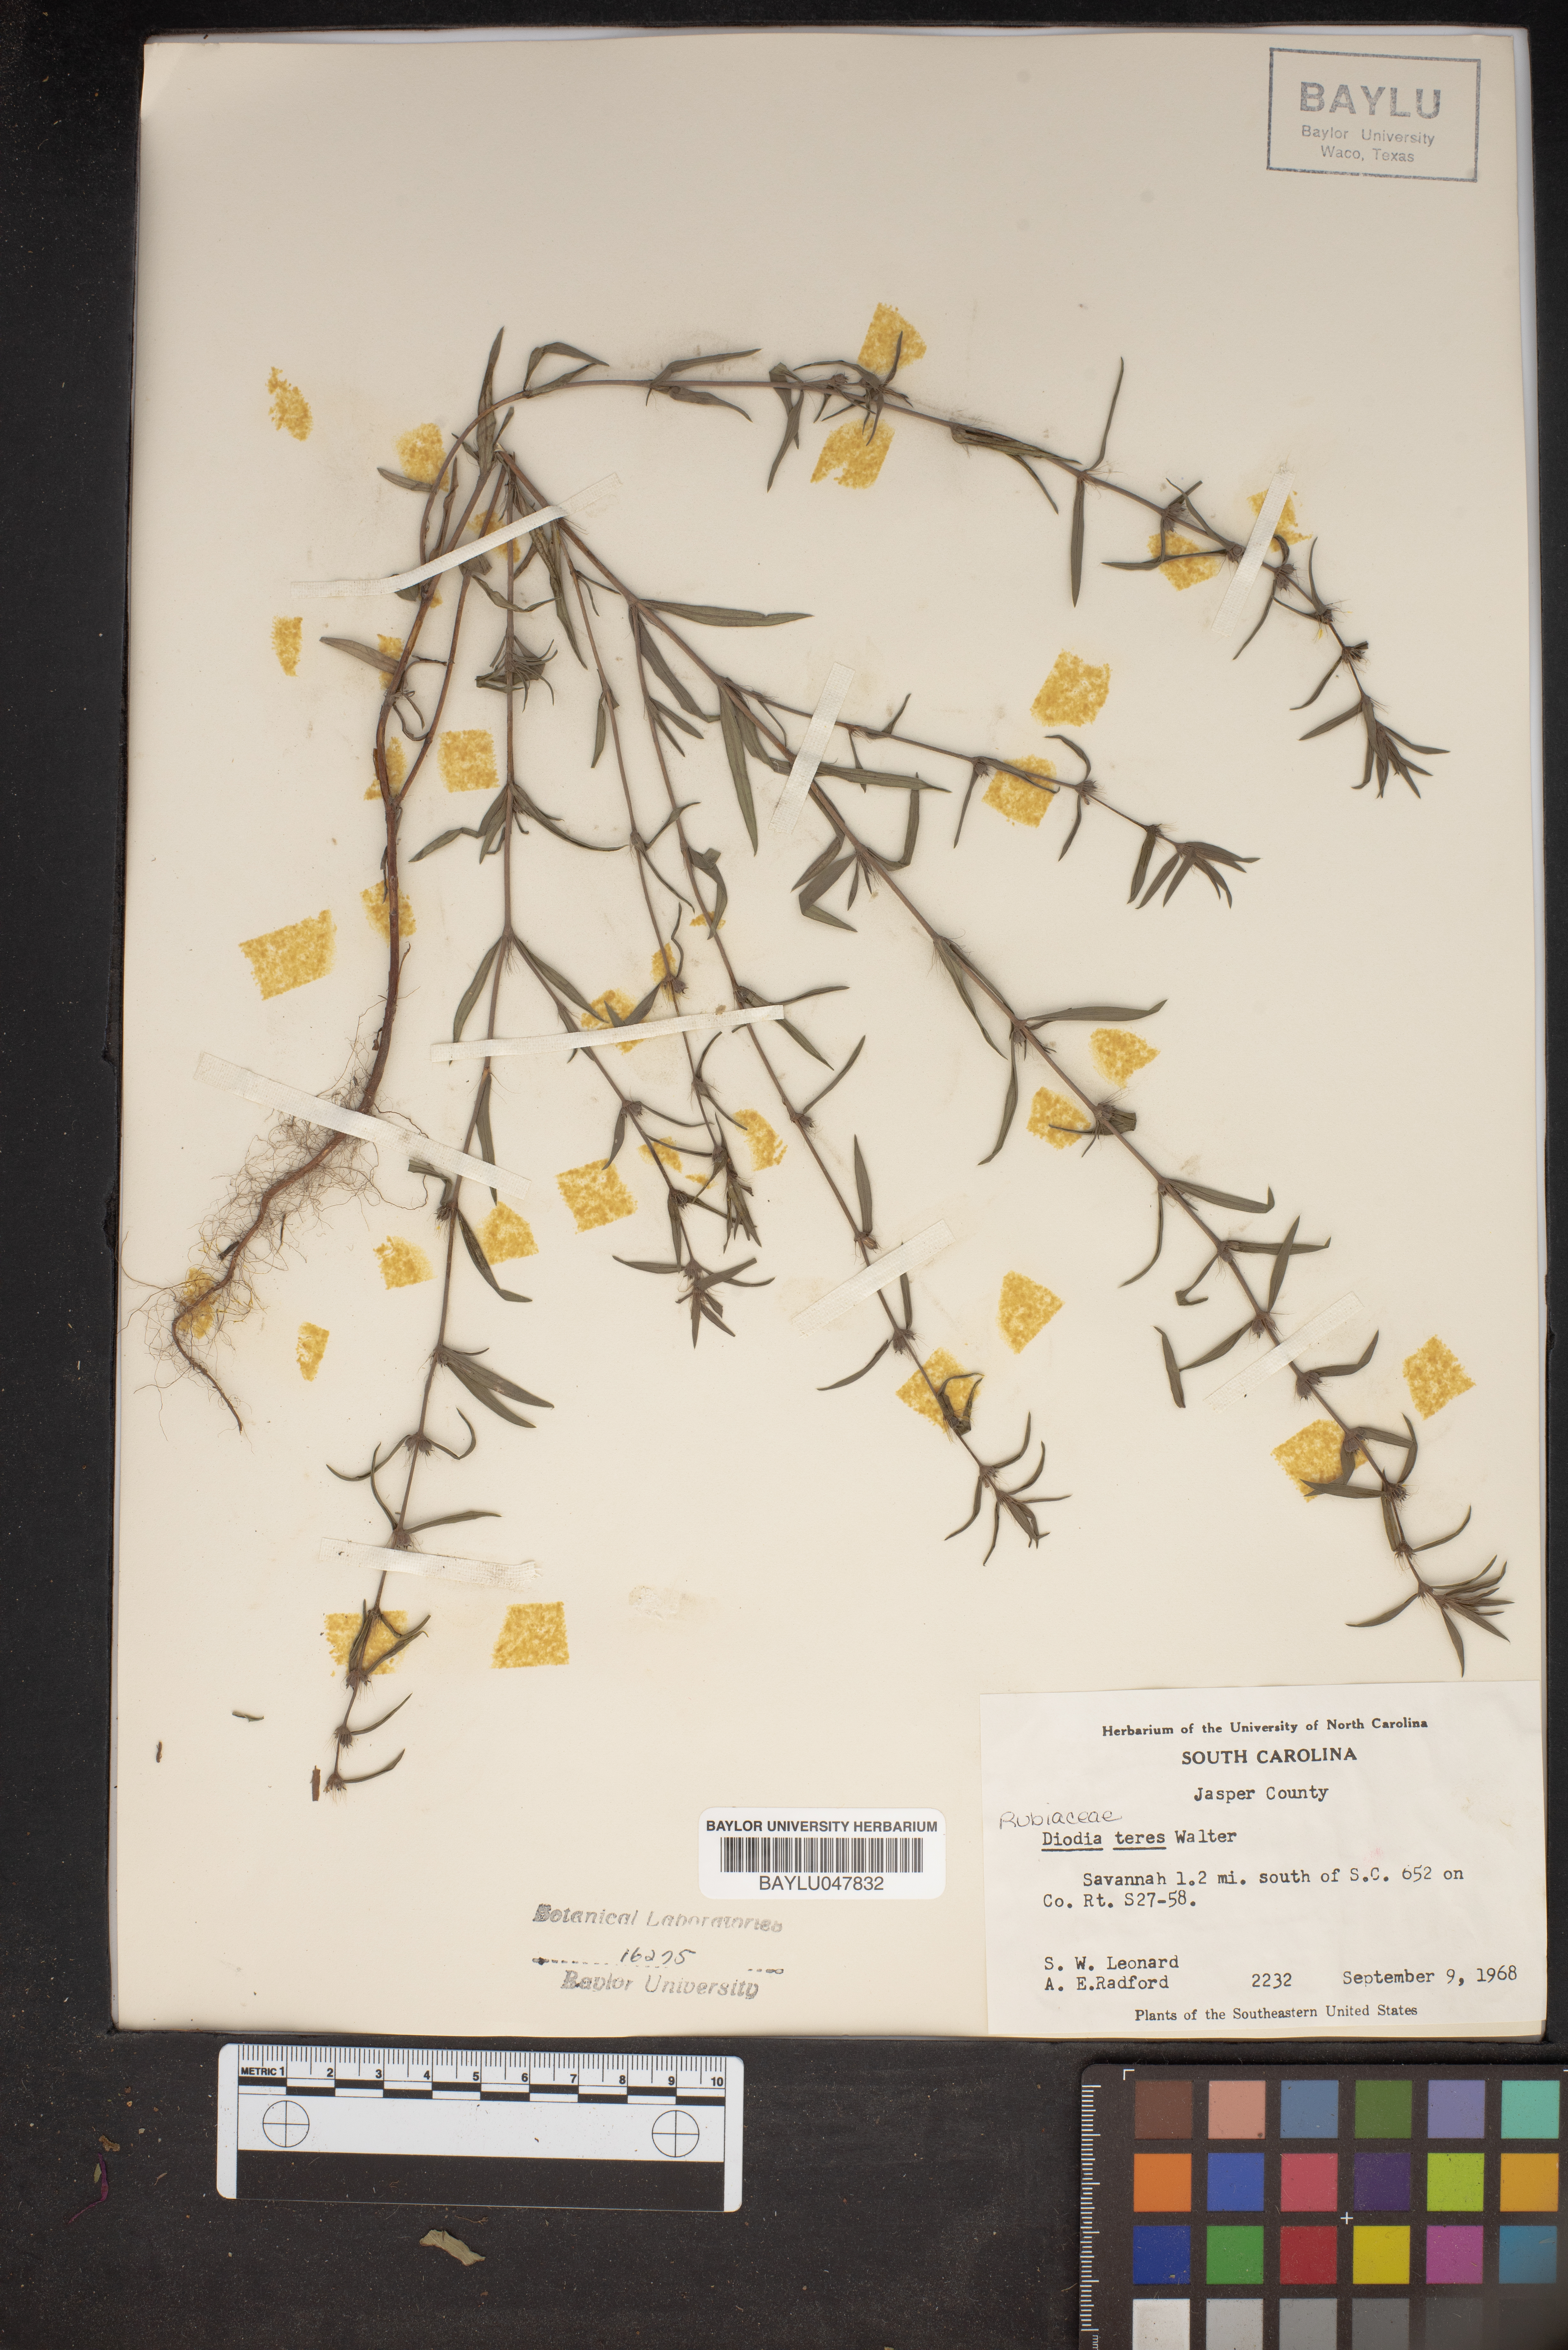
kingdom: Plantae
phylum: Tracheophyta
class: Magnoliopsida
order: Gentianales
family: Rubiaceae
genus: Hexasepalum
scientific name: Hexasepalum teres
